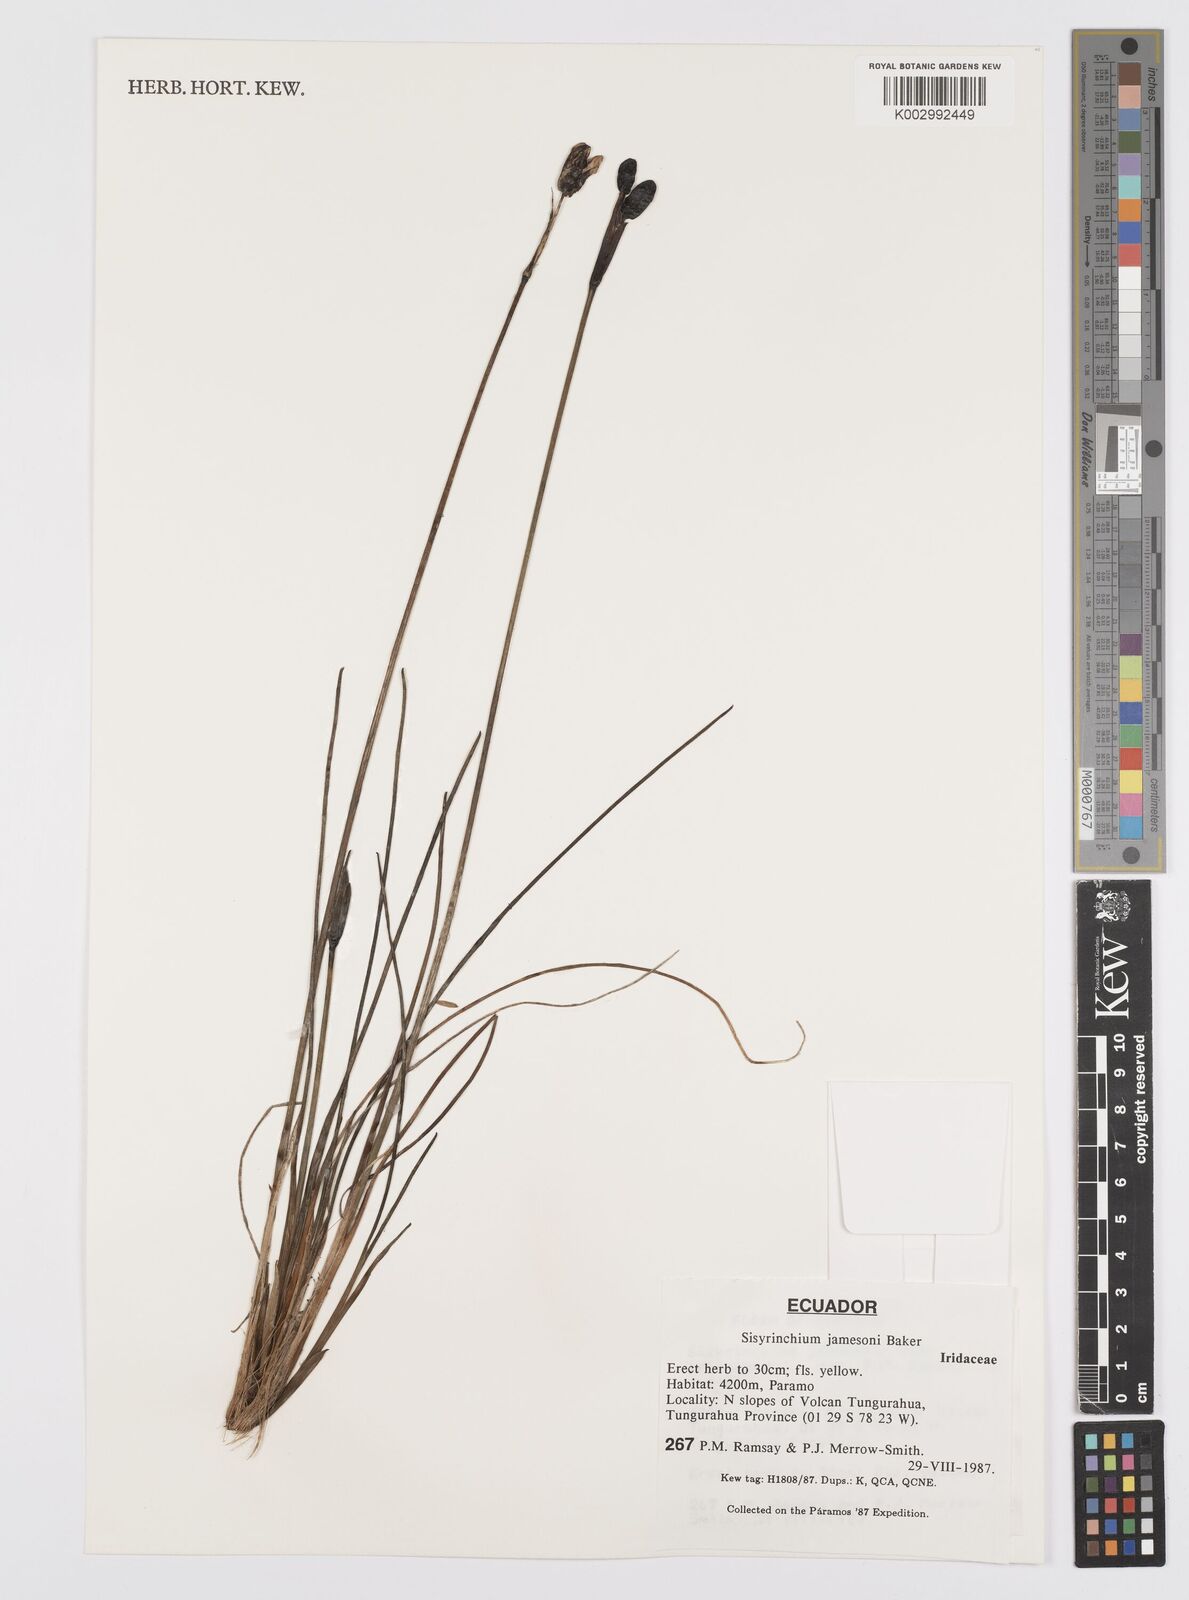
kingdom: Plantae
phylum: Tracheophyta
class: Liliopsida
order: Asparagales
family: Iridaceae
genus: Sisyrinchium
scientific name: Sisyrinchium jamesonii
